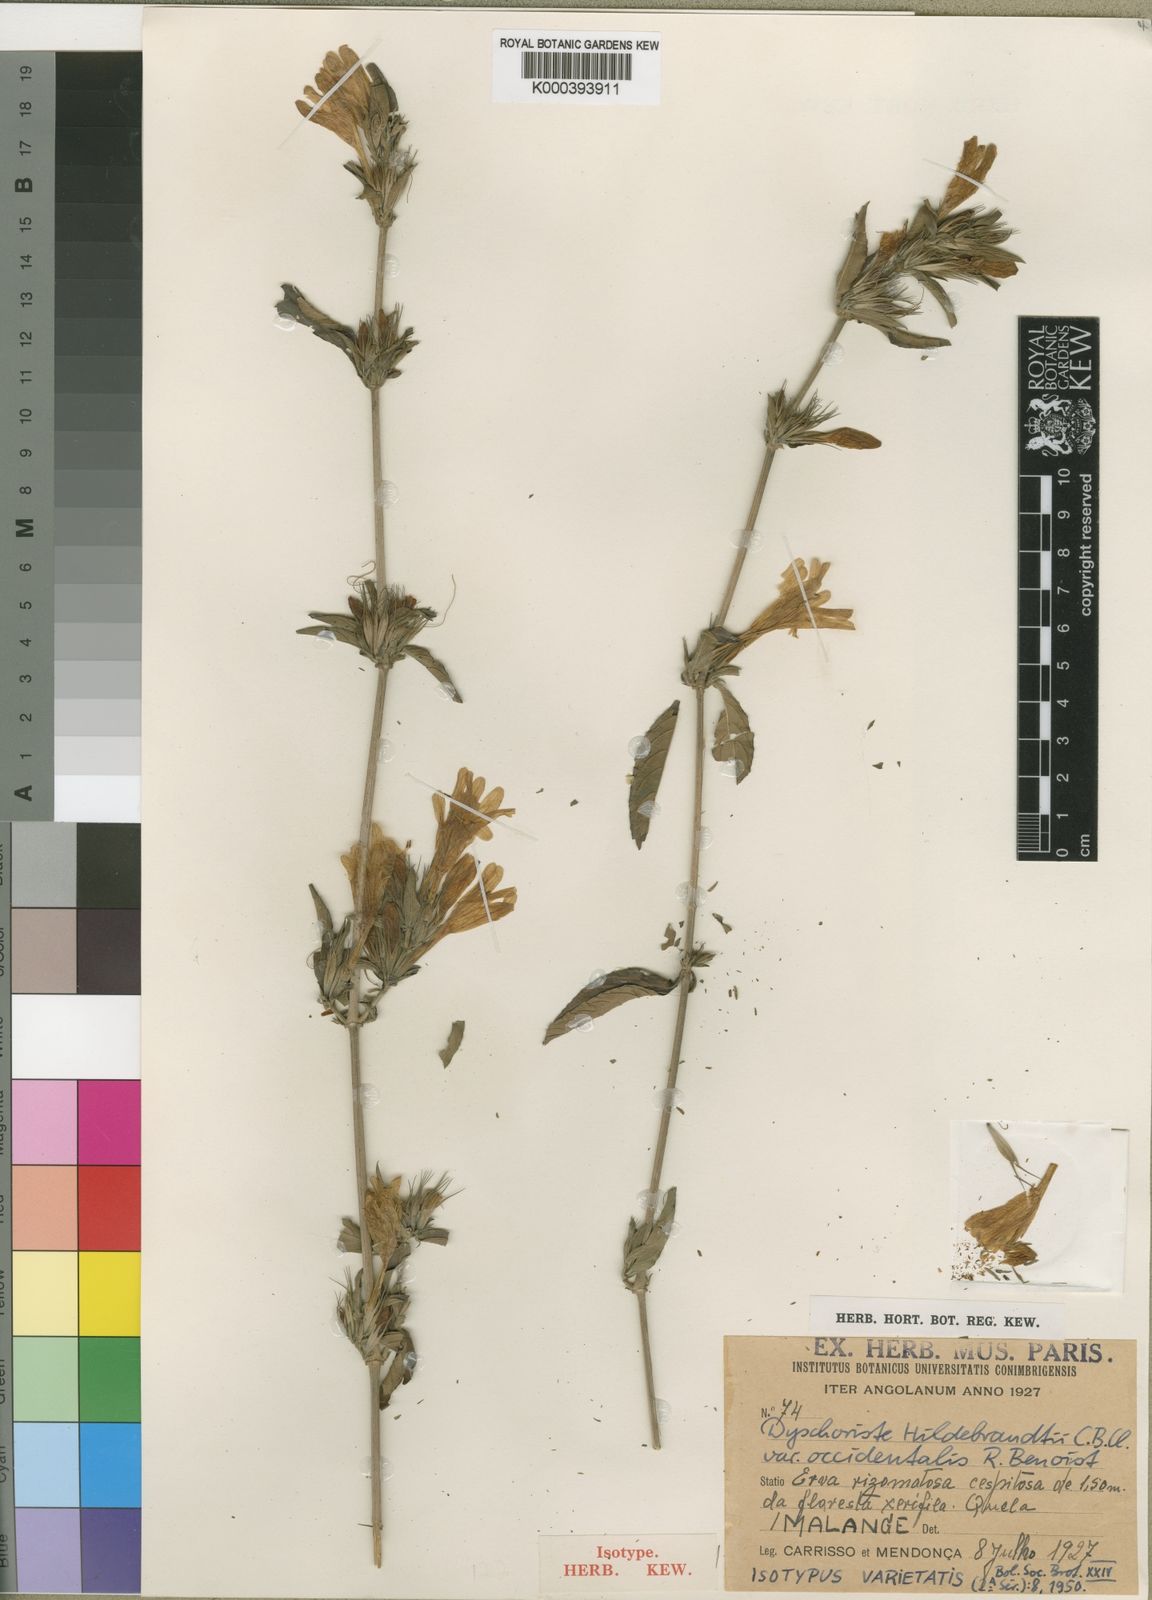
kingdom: Plantae
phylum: Tracheophyta
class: Magnoliopsida
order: Lamiales
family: Acanthaceae
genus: Dyschoriste
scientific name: Dyschoriste
